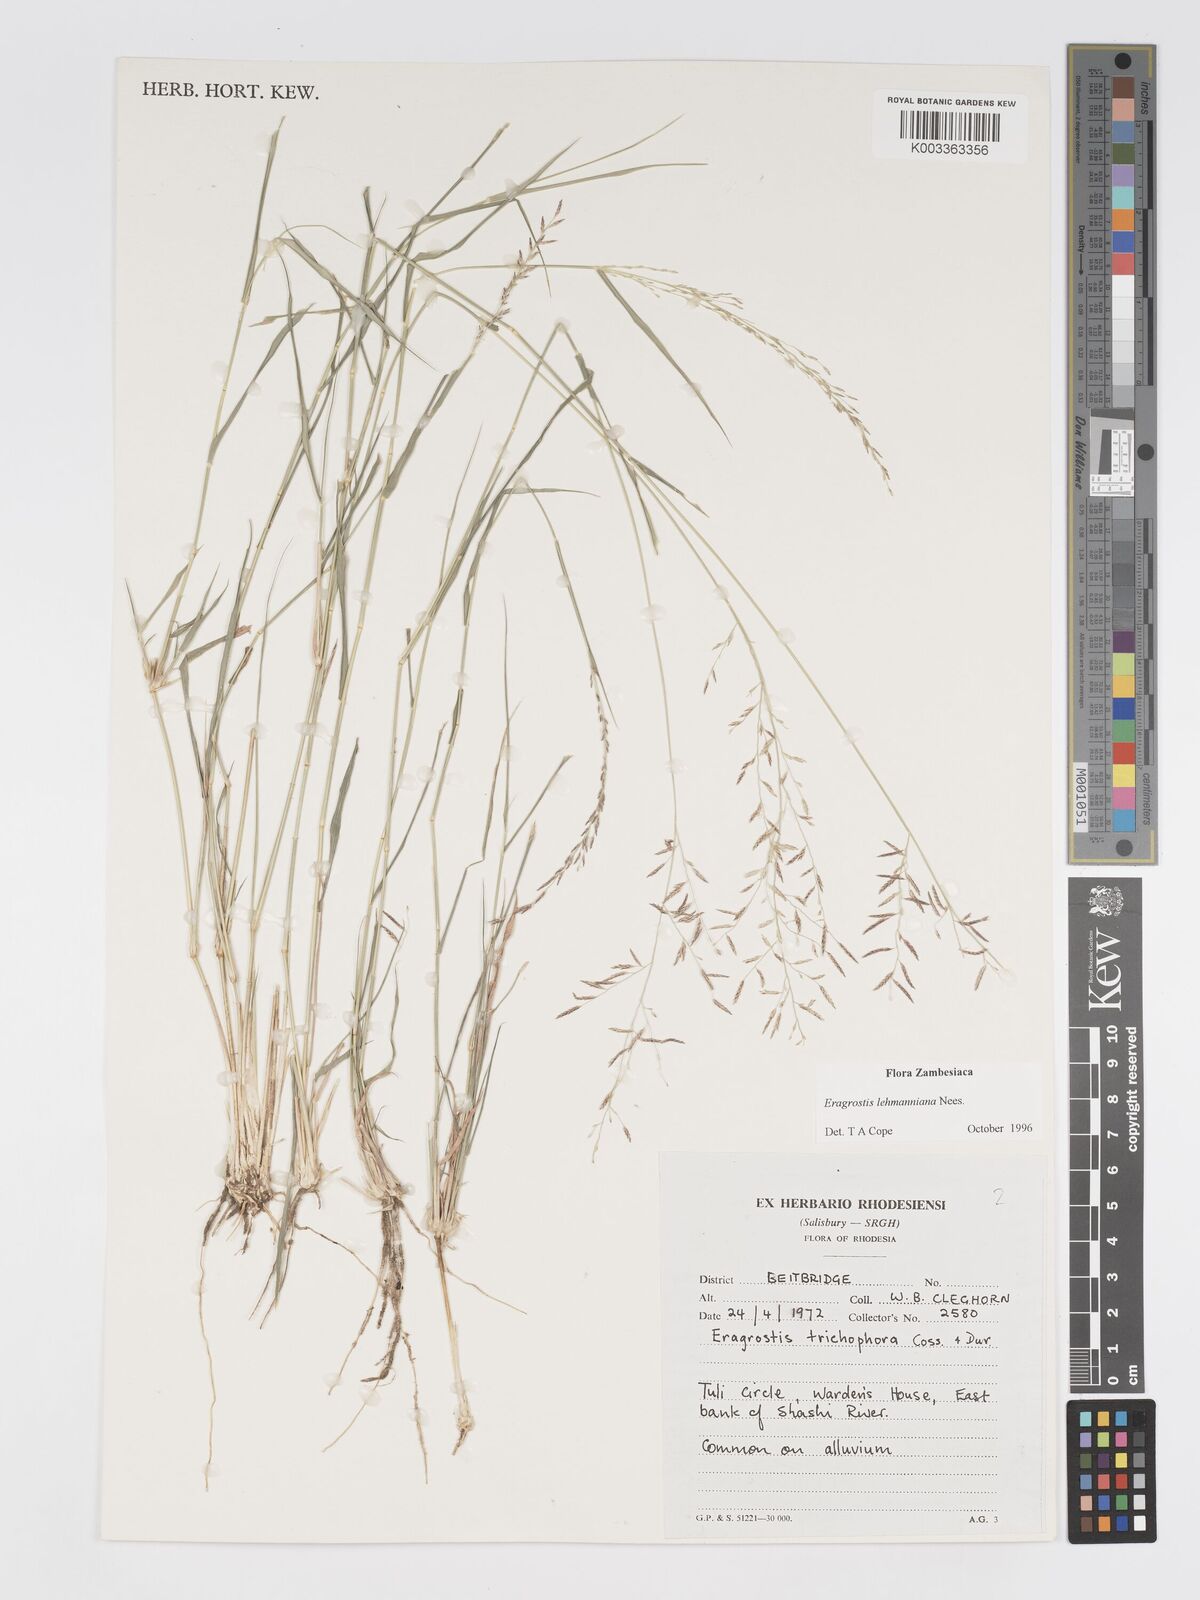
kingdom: Plantae
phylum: Tracheophyta
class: Liliopsida
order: Poales
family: Poaceae
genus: Eragrostis
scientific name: Eragrostis lehmanniana
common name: Lehmann lovegrass
